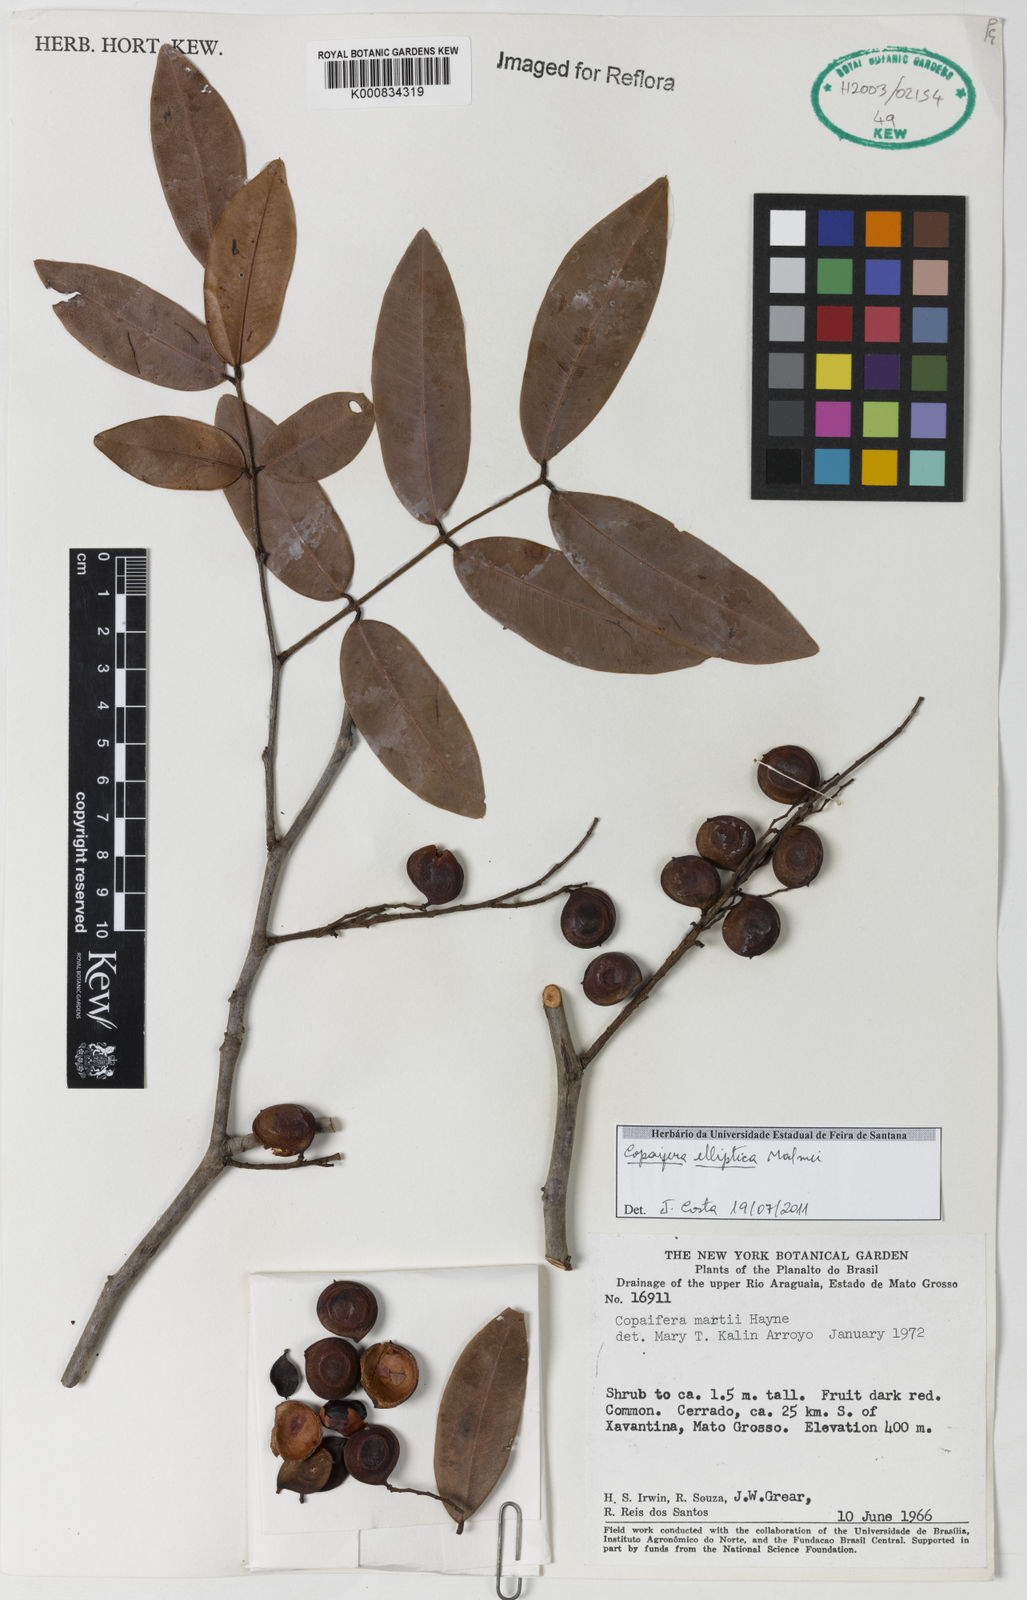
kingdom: Plantae
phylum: Tracheophyta
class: Magnoliopsida
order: Fabales
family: Fabaceae
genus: Copaifera
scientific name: Copaifera elliptica
